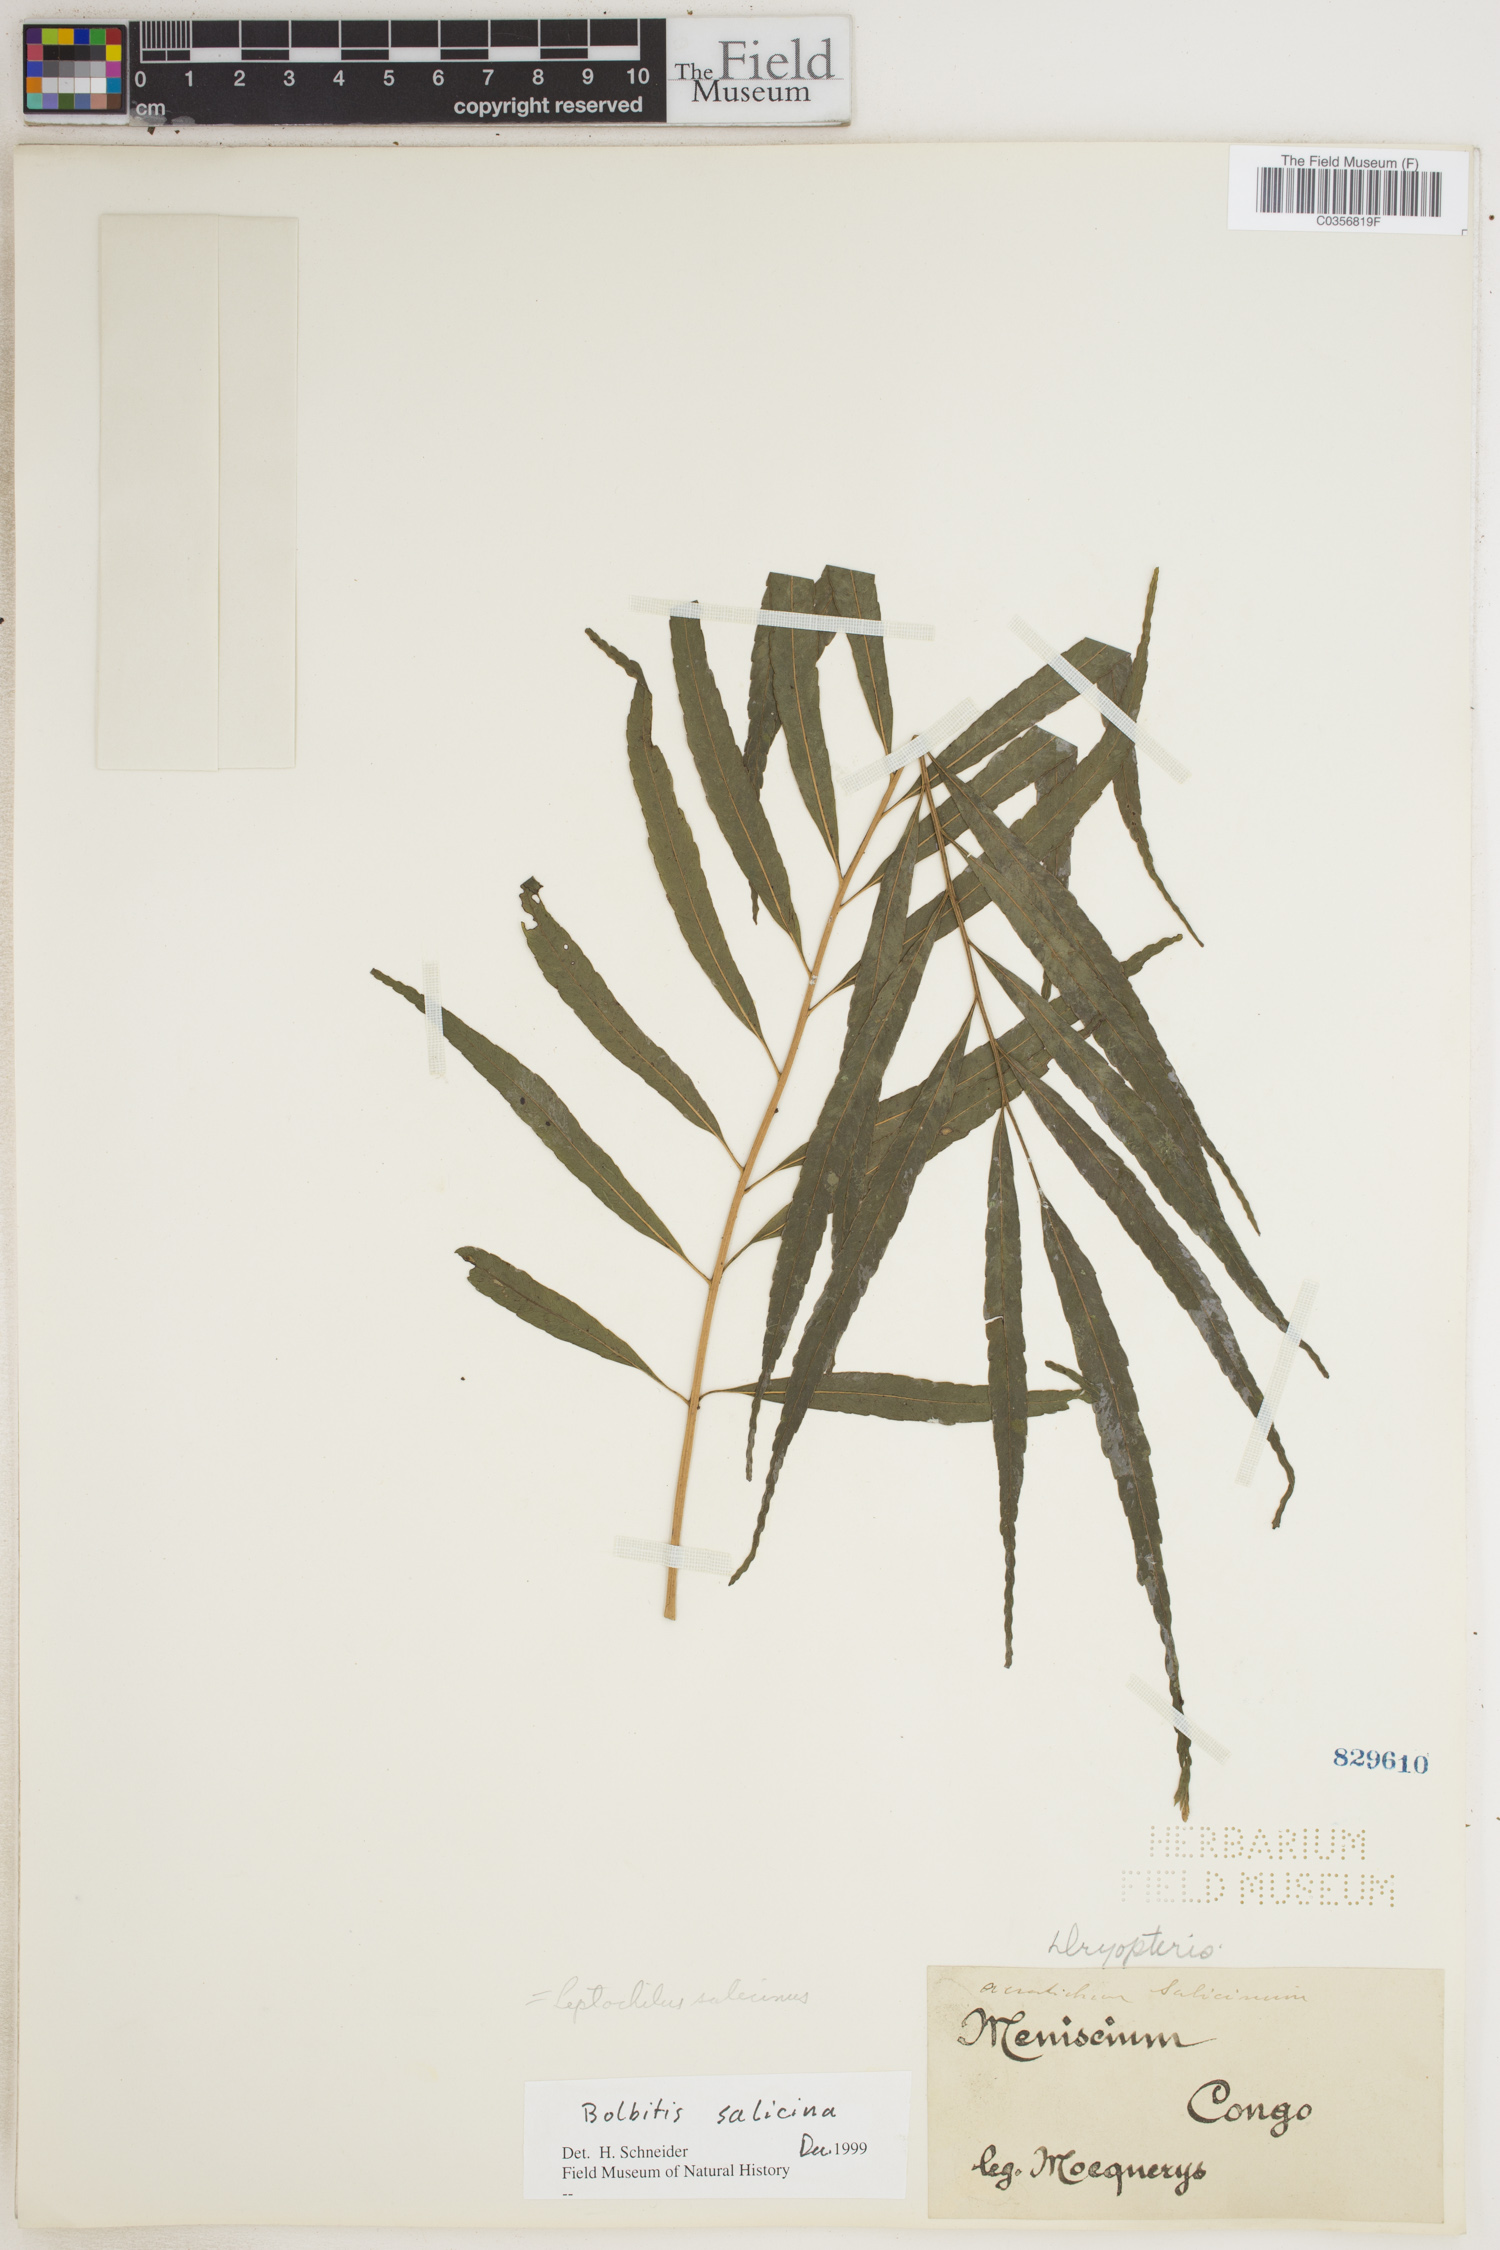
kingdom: Plantae
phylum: Tracheophyta
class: Polypodiopsida
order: Polypodiales
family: Dryopteridaceae
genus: Bolbitis
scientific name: Bolbitis salicina
